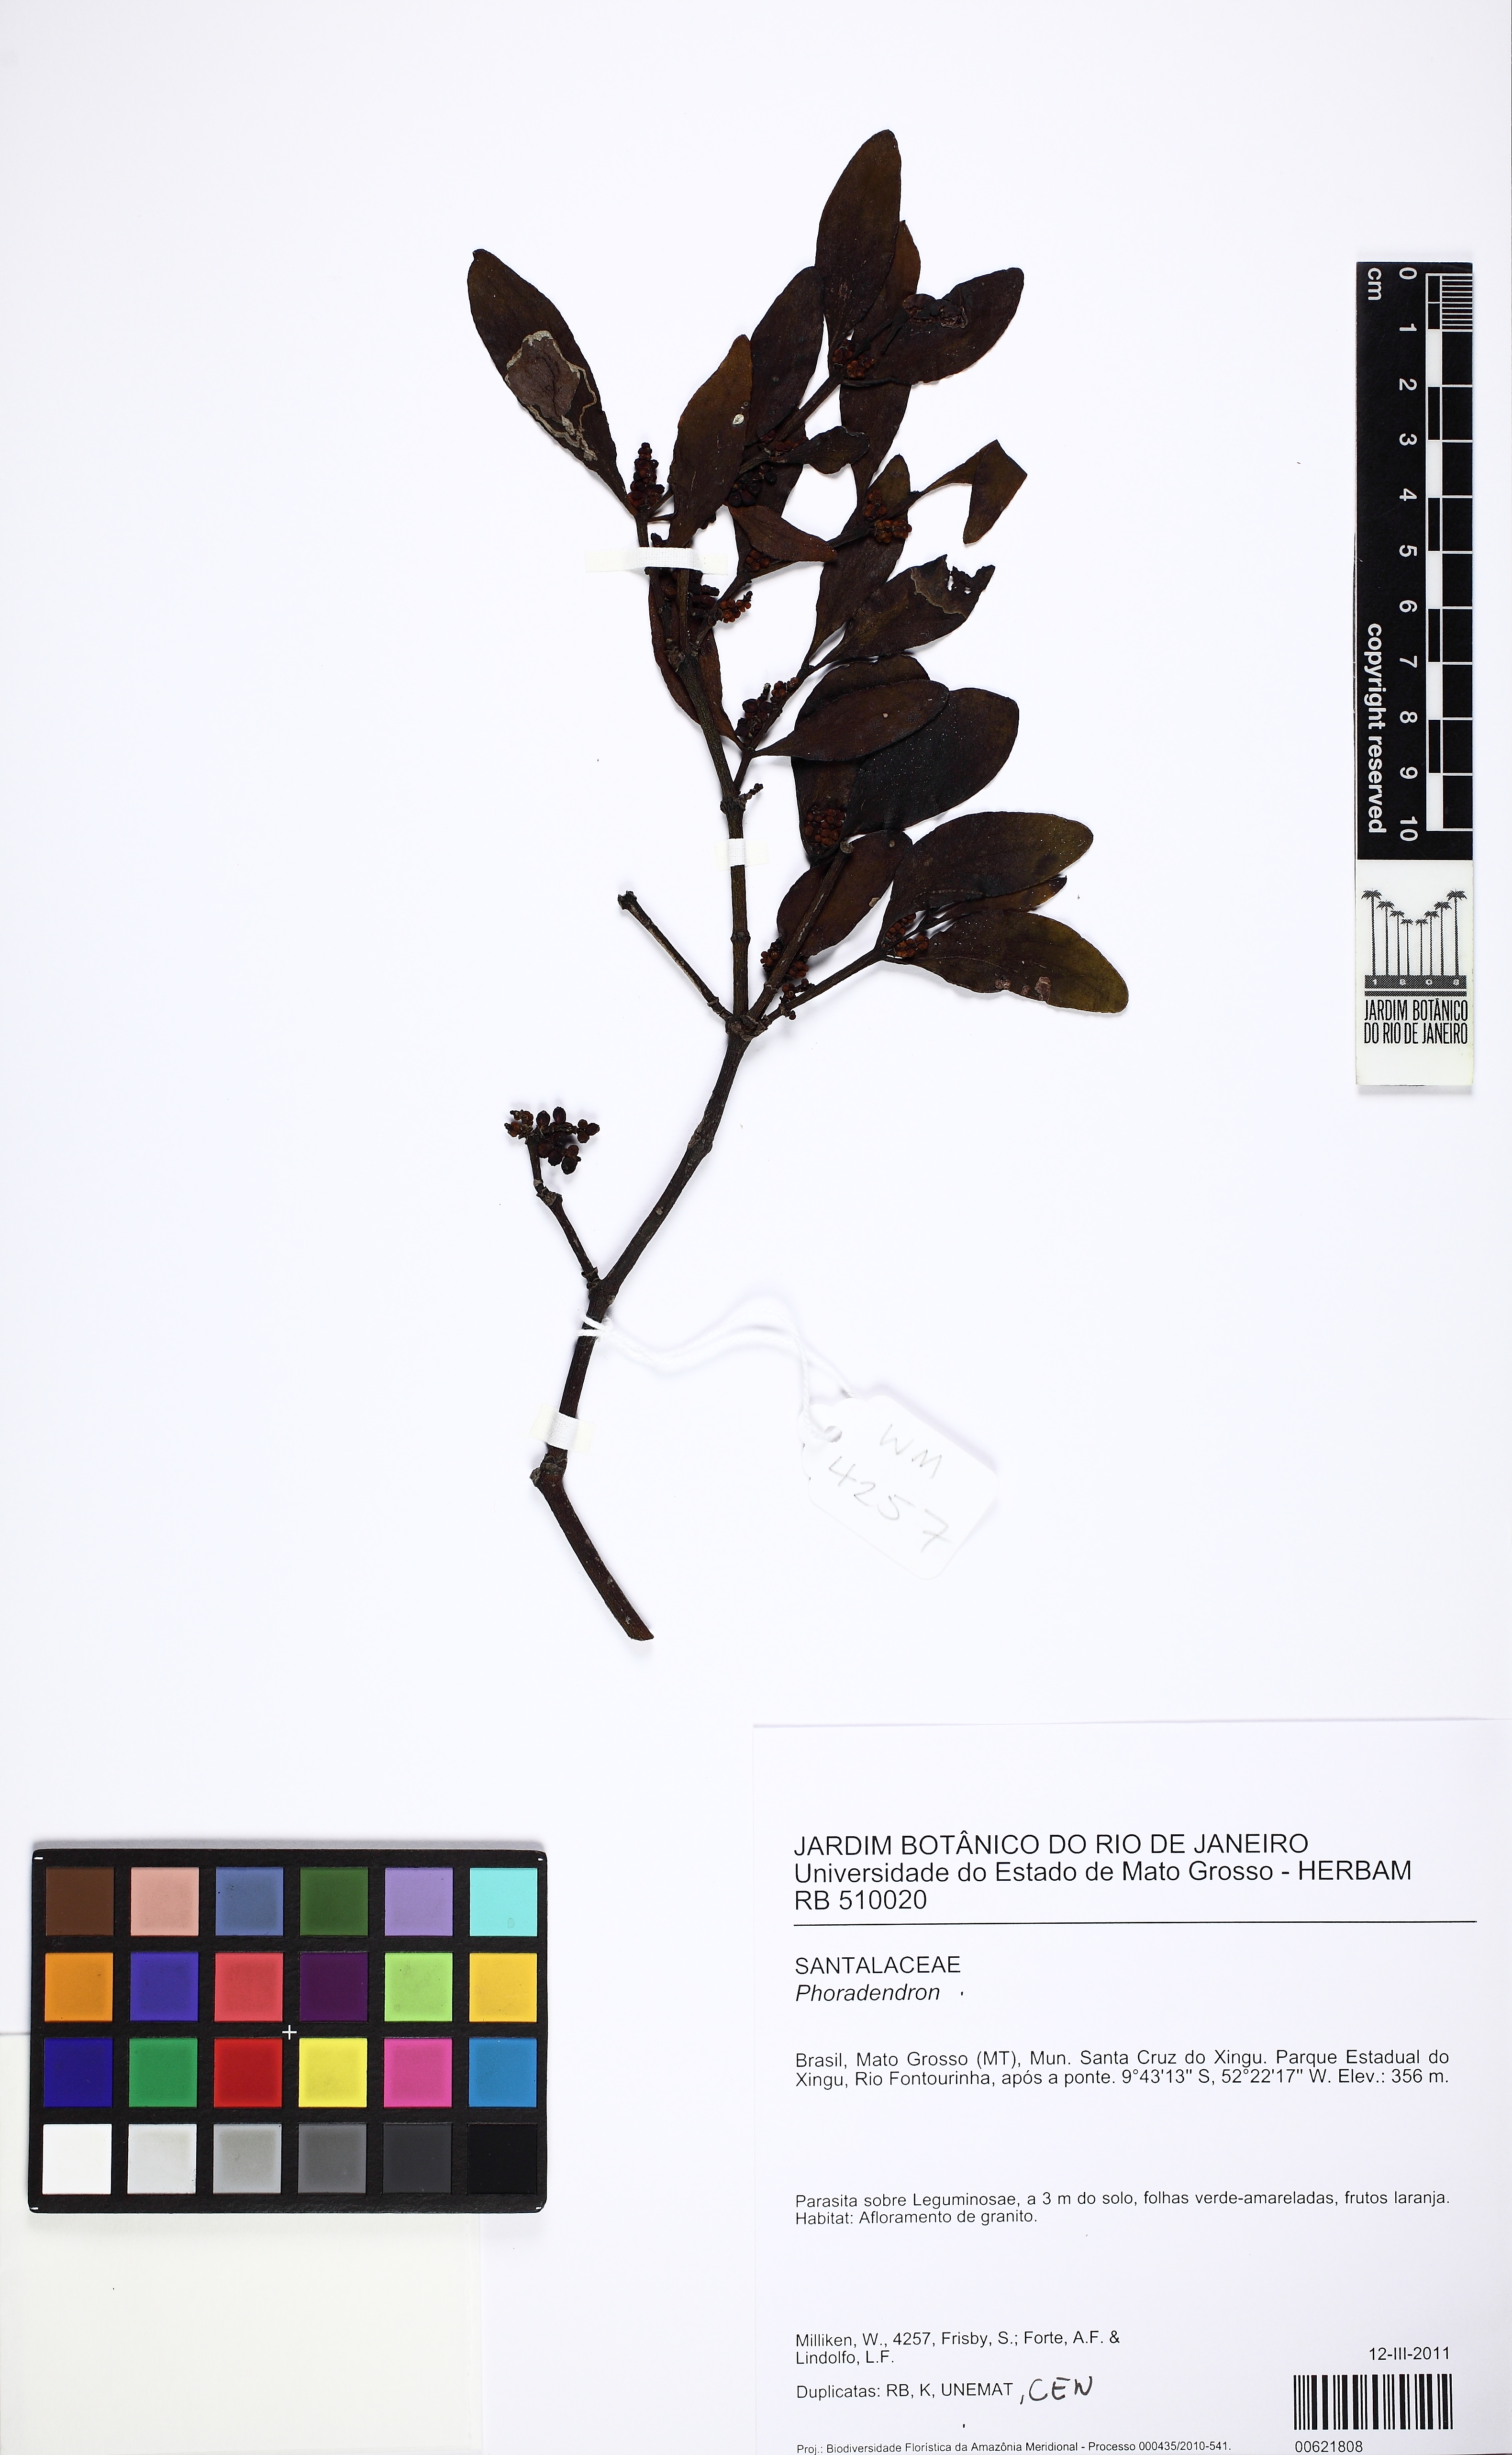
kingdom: Plantae
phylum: Tracheophyta
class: Magnoliopsida
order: Santalales
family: Viscaceae
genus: Phoradendron
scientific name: Phoradendron congestum
